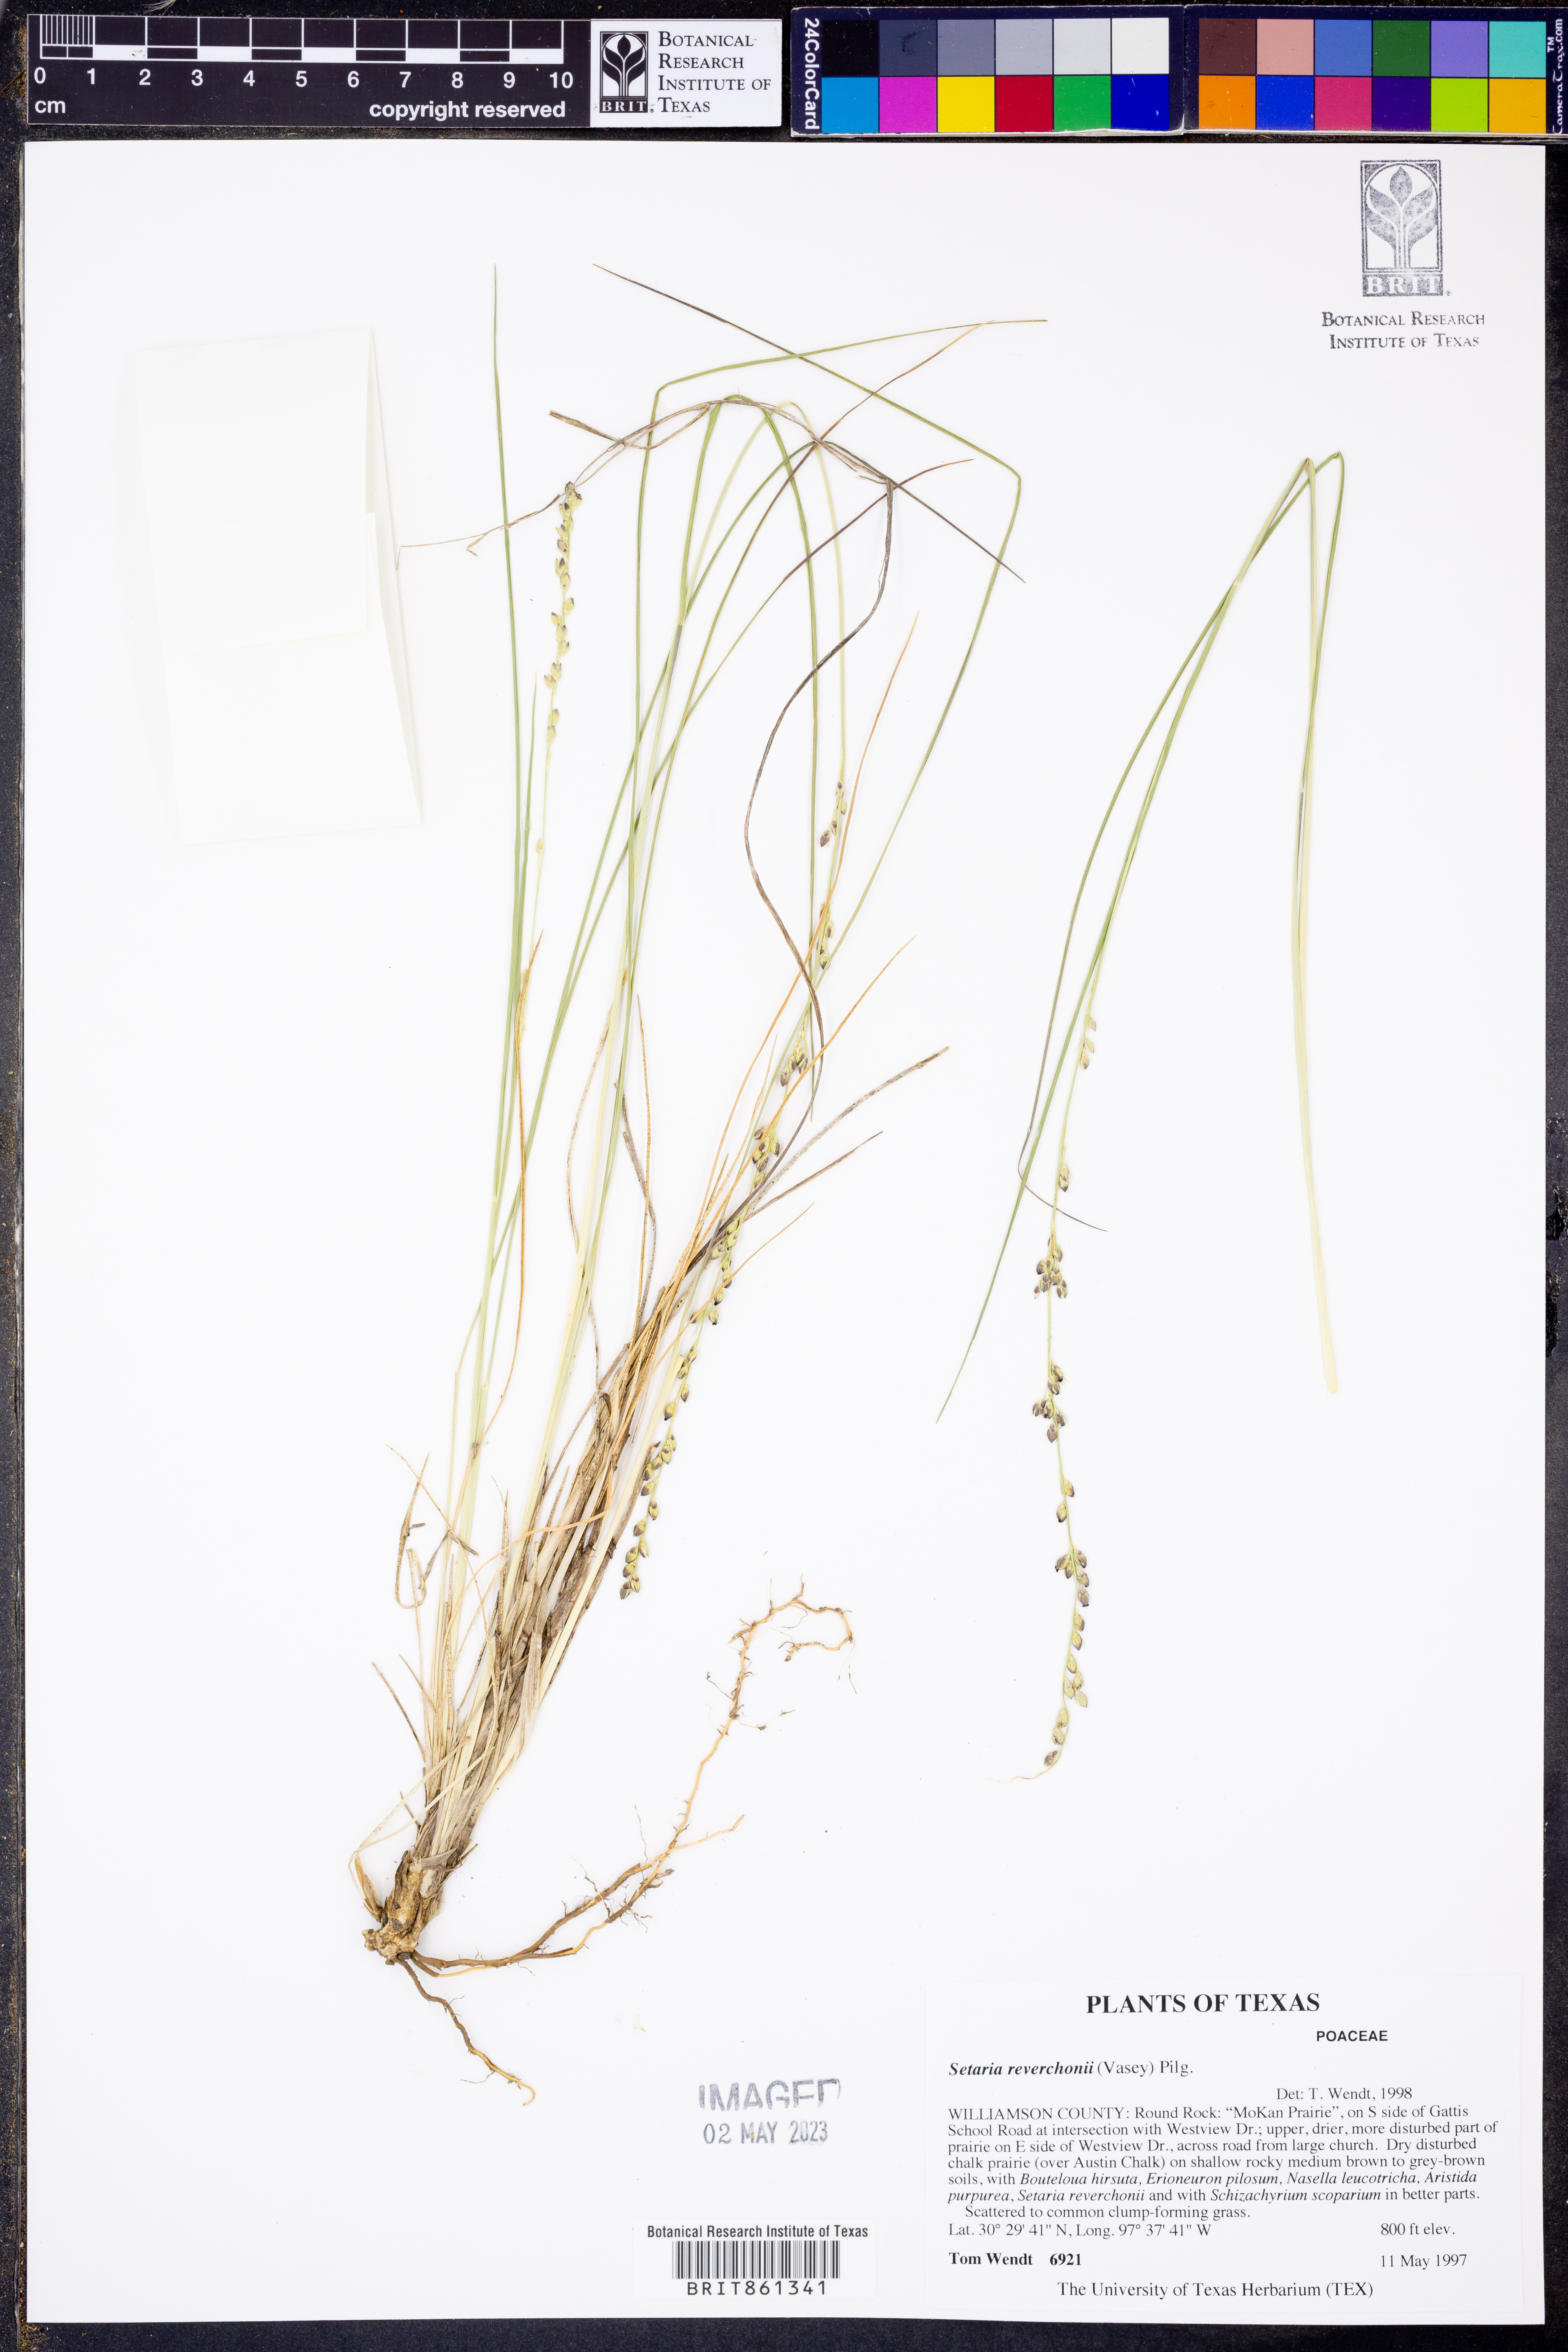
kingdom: Plantae
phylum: Tracheophyta
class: Liliopsida
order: Poales
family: Poaceae
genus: Setaria
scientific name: Setaria reverchonii
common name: Reverchon's bristle grass
